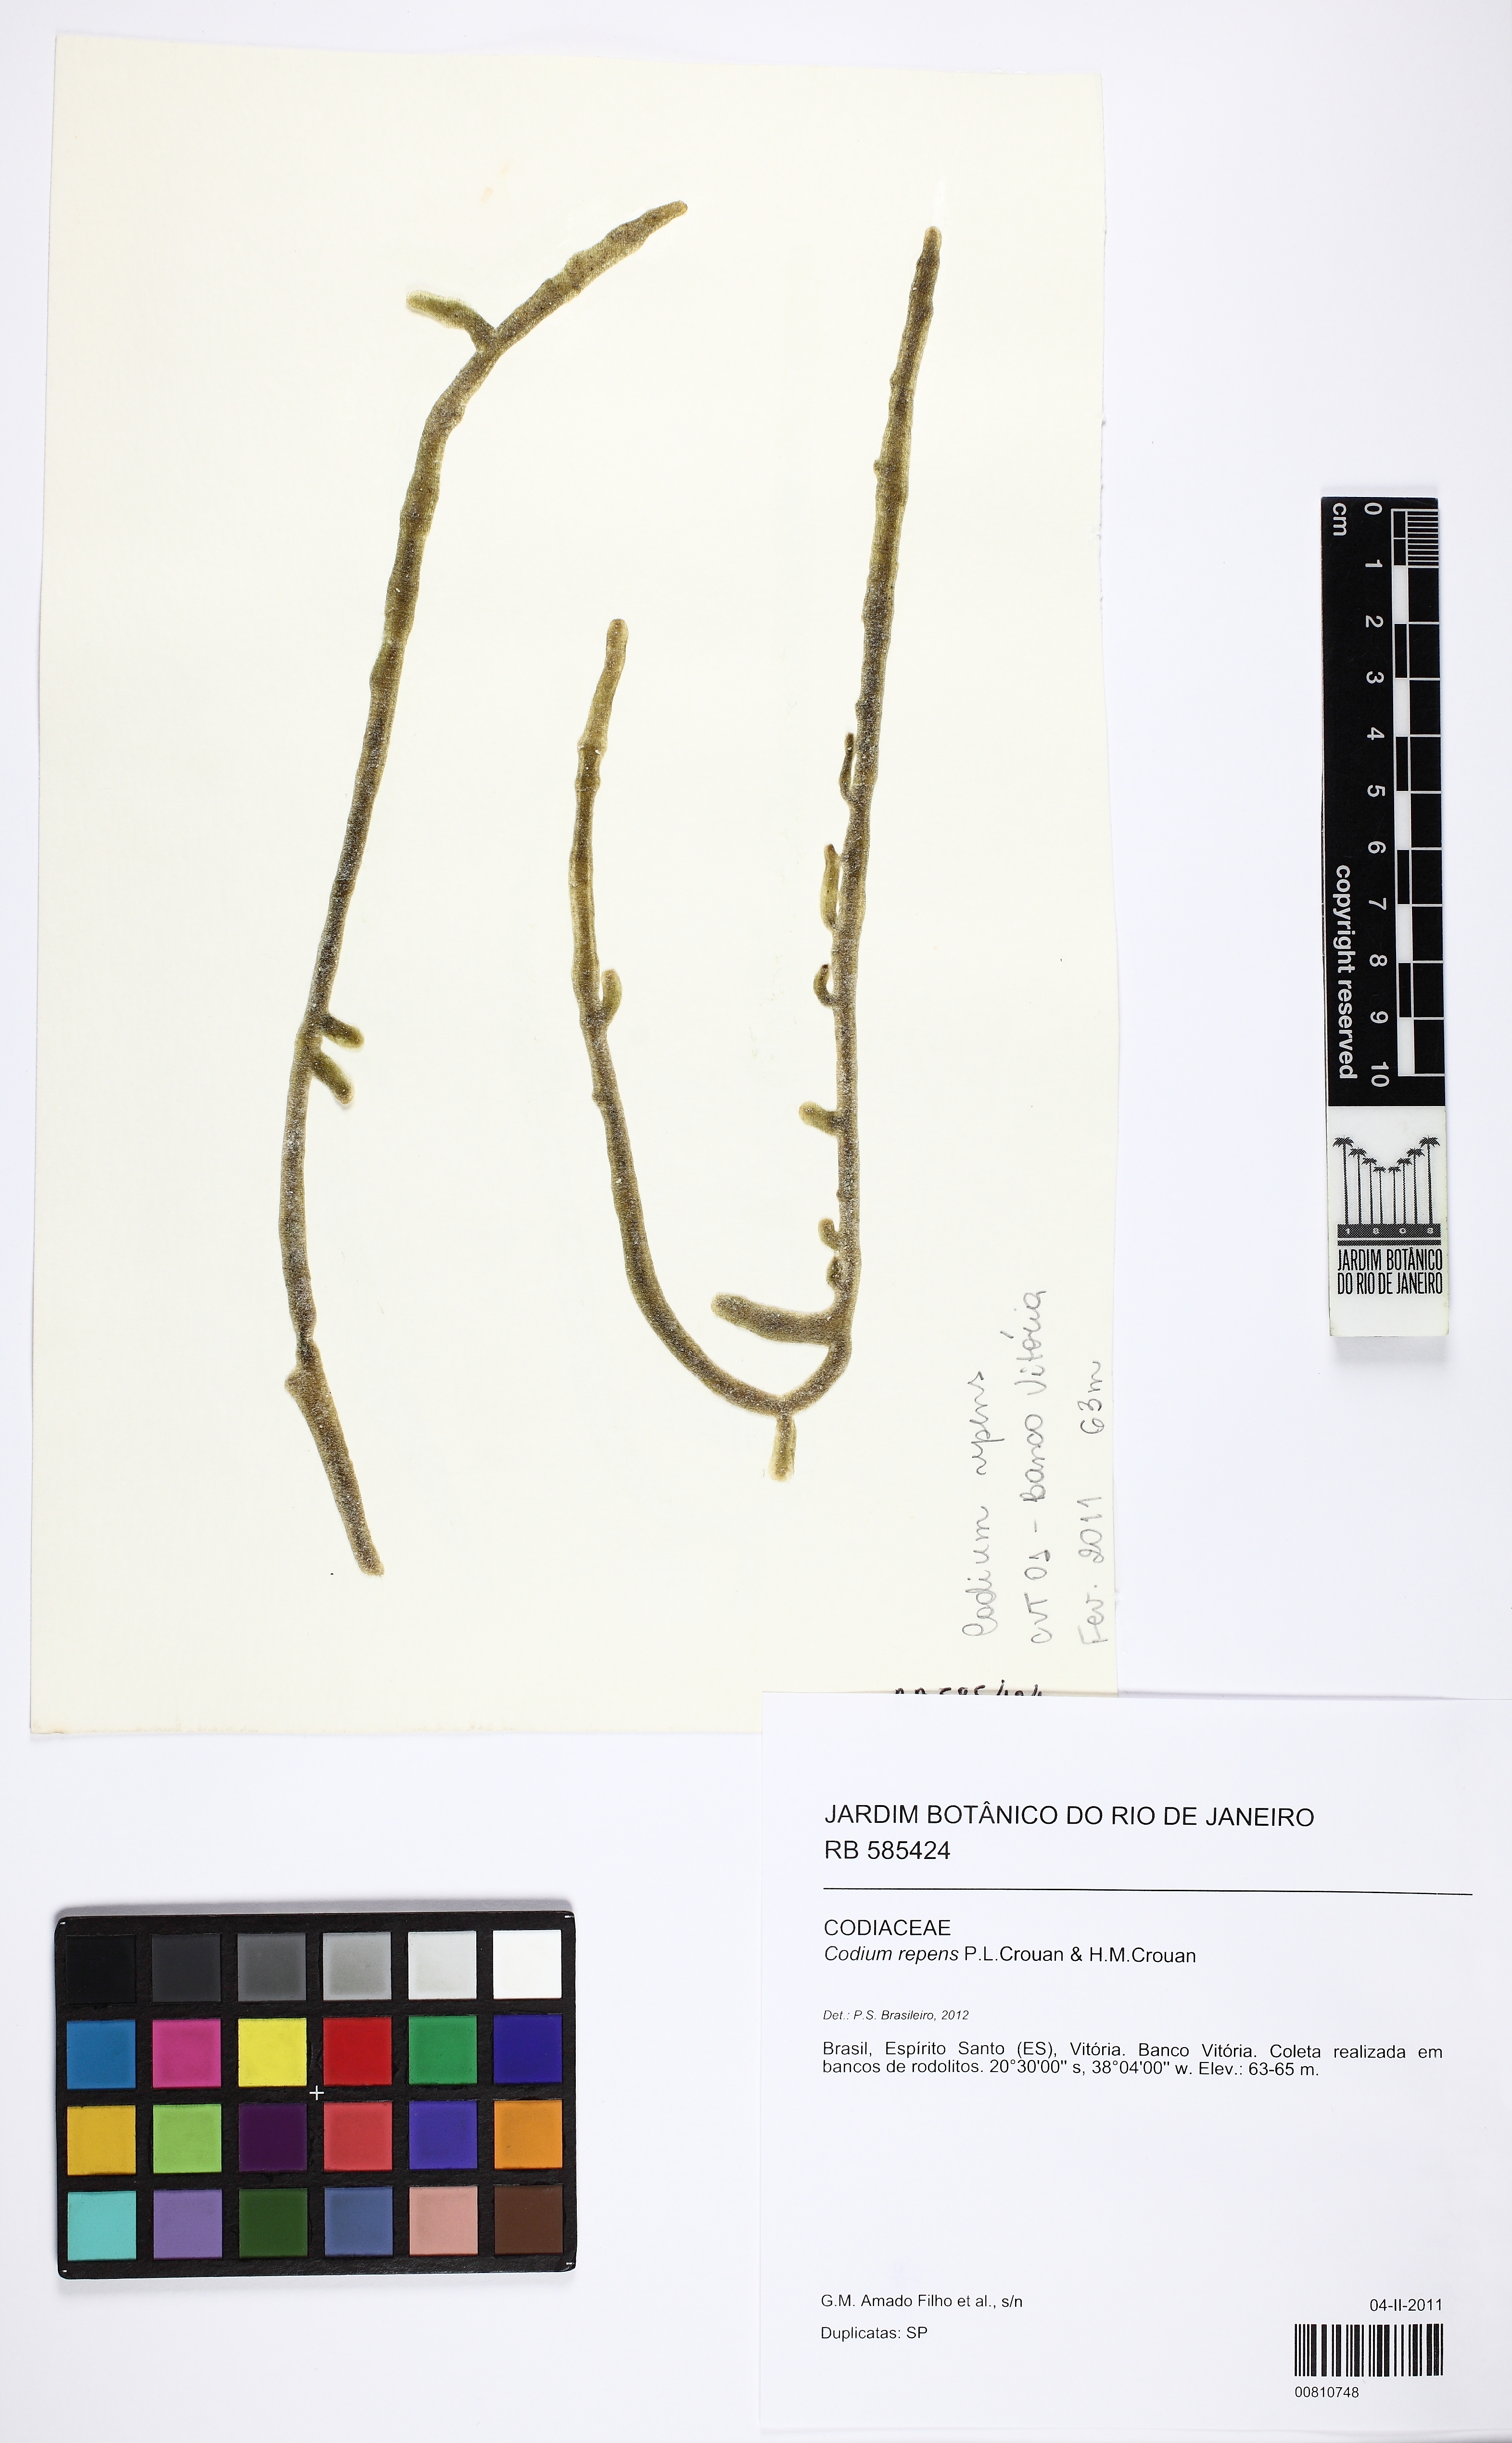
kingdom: Plantae
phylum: Chlorophyta
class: Ulvophyceae
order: Bryopsidales
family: Codiaceae
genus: Codium
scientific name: Codium repens
